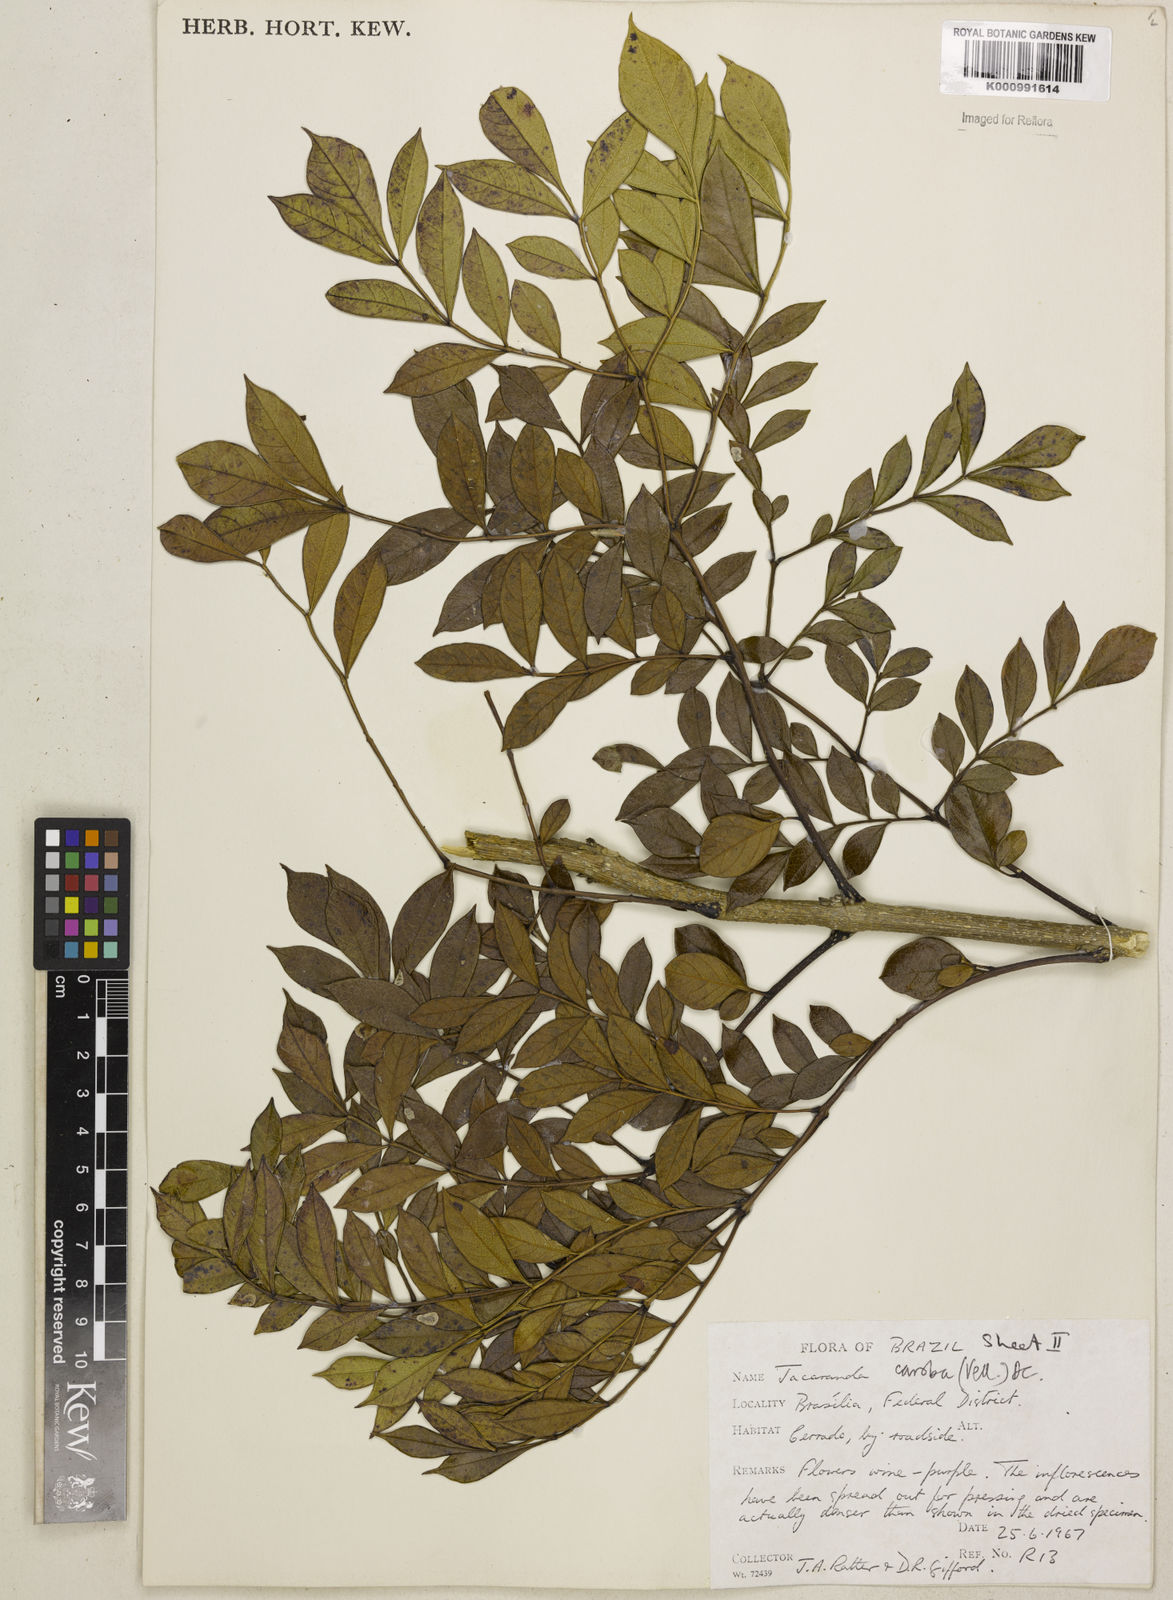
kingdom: Plantae
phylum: Tracheophyta
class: Magnoliopsida
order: Lamiales
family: Bignoniaceae
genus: Jacaranda
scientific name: Jacaranda caroba
